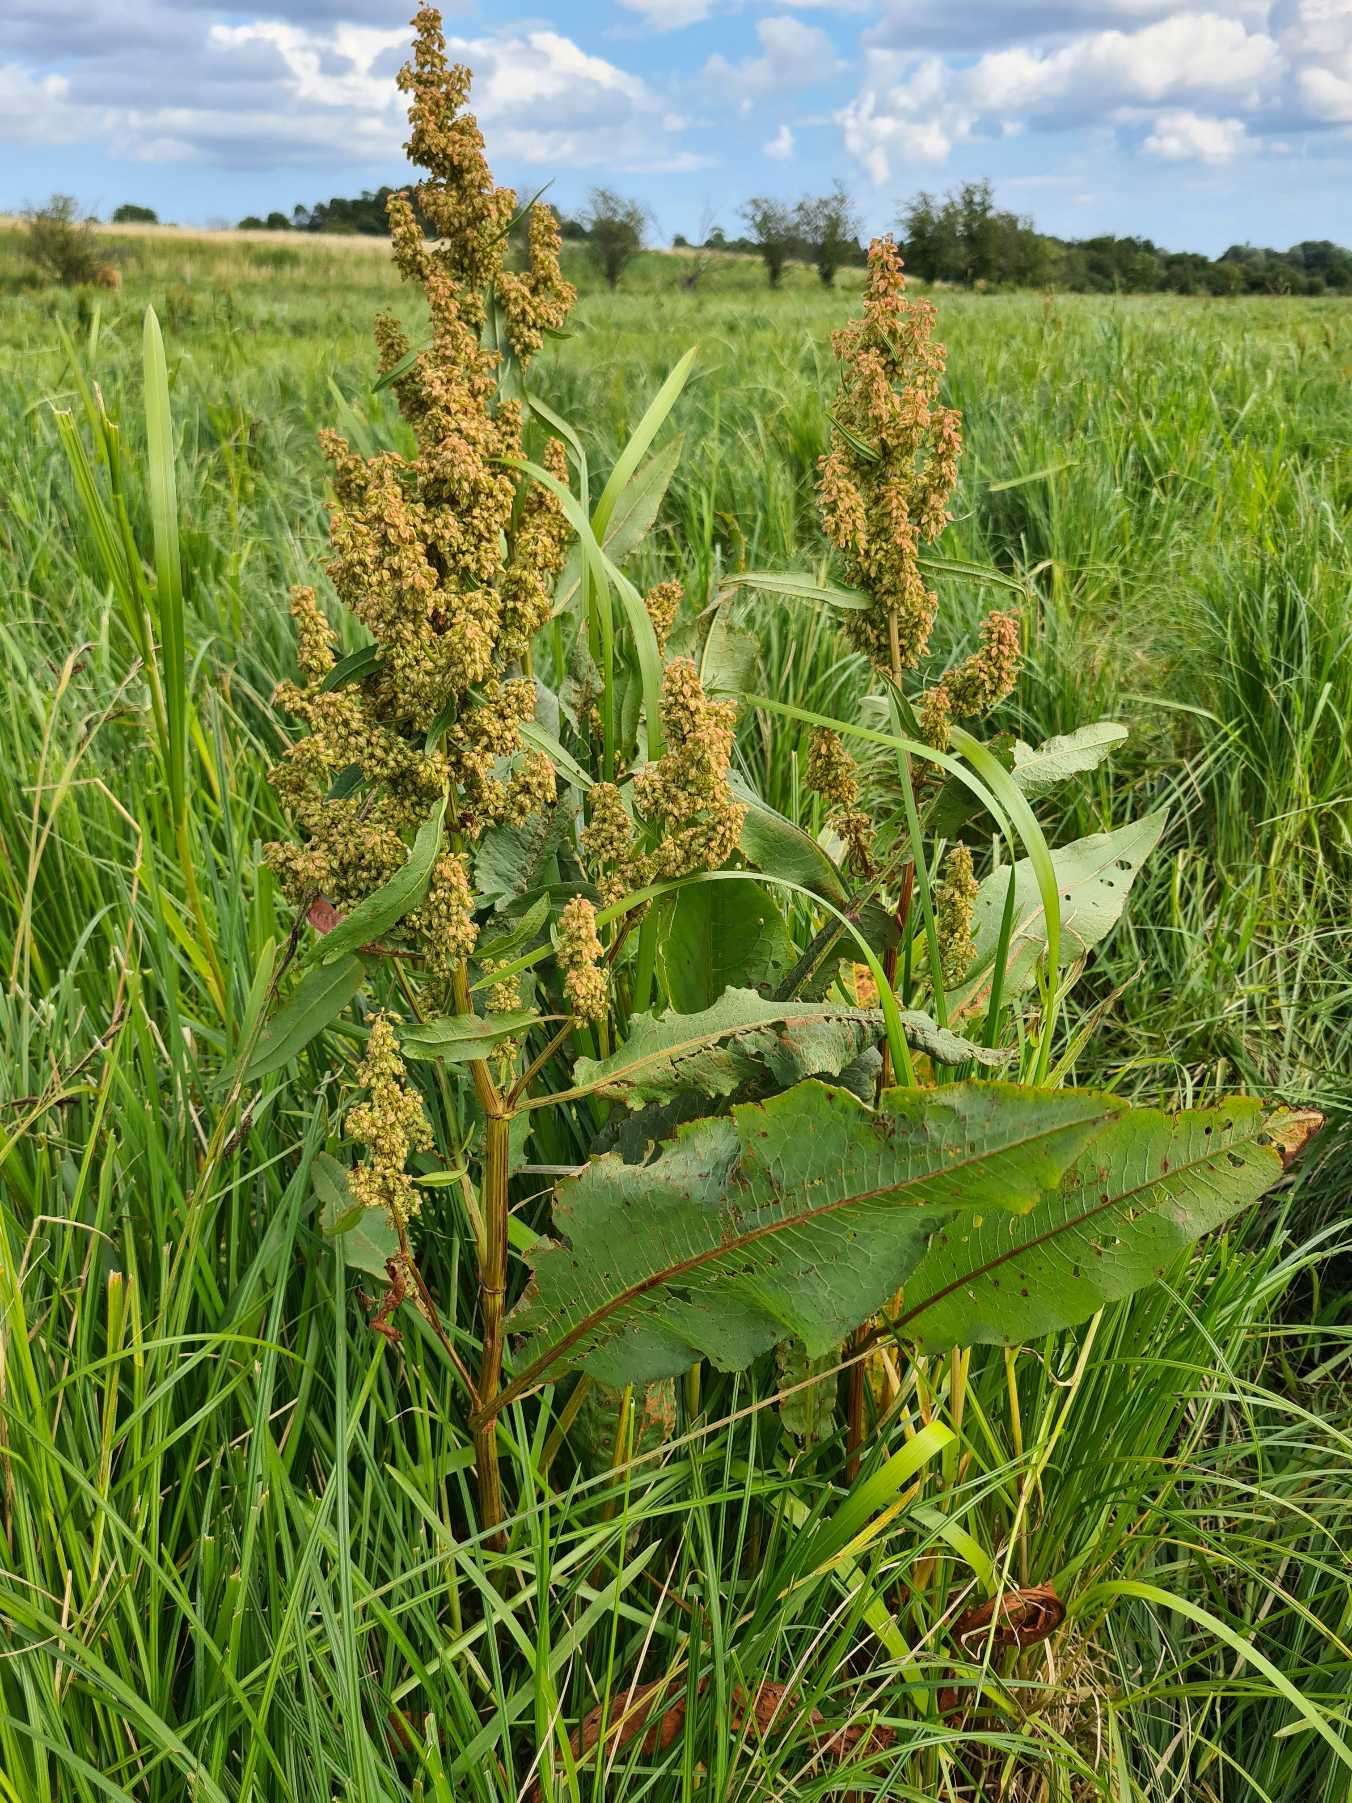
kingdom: Plantae
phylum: Tracheophyta
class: Magnoliopsida
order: Caryophyllales
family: Polygonaceae
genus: Rumex
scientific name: Rumex hydrolapathum
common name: Vand-skræppe
